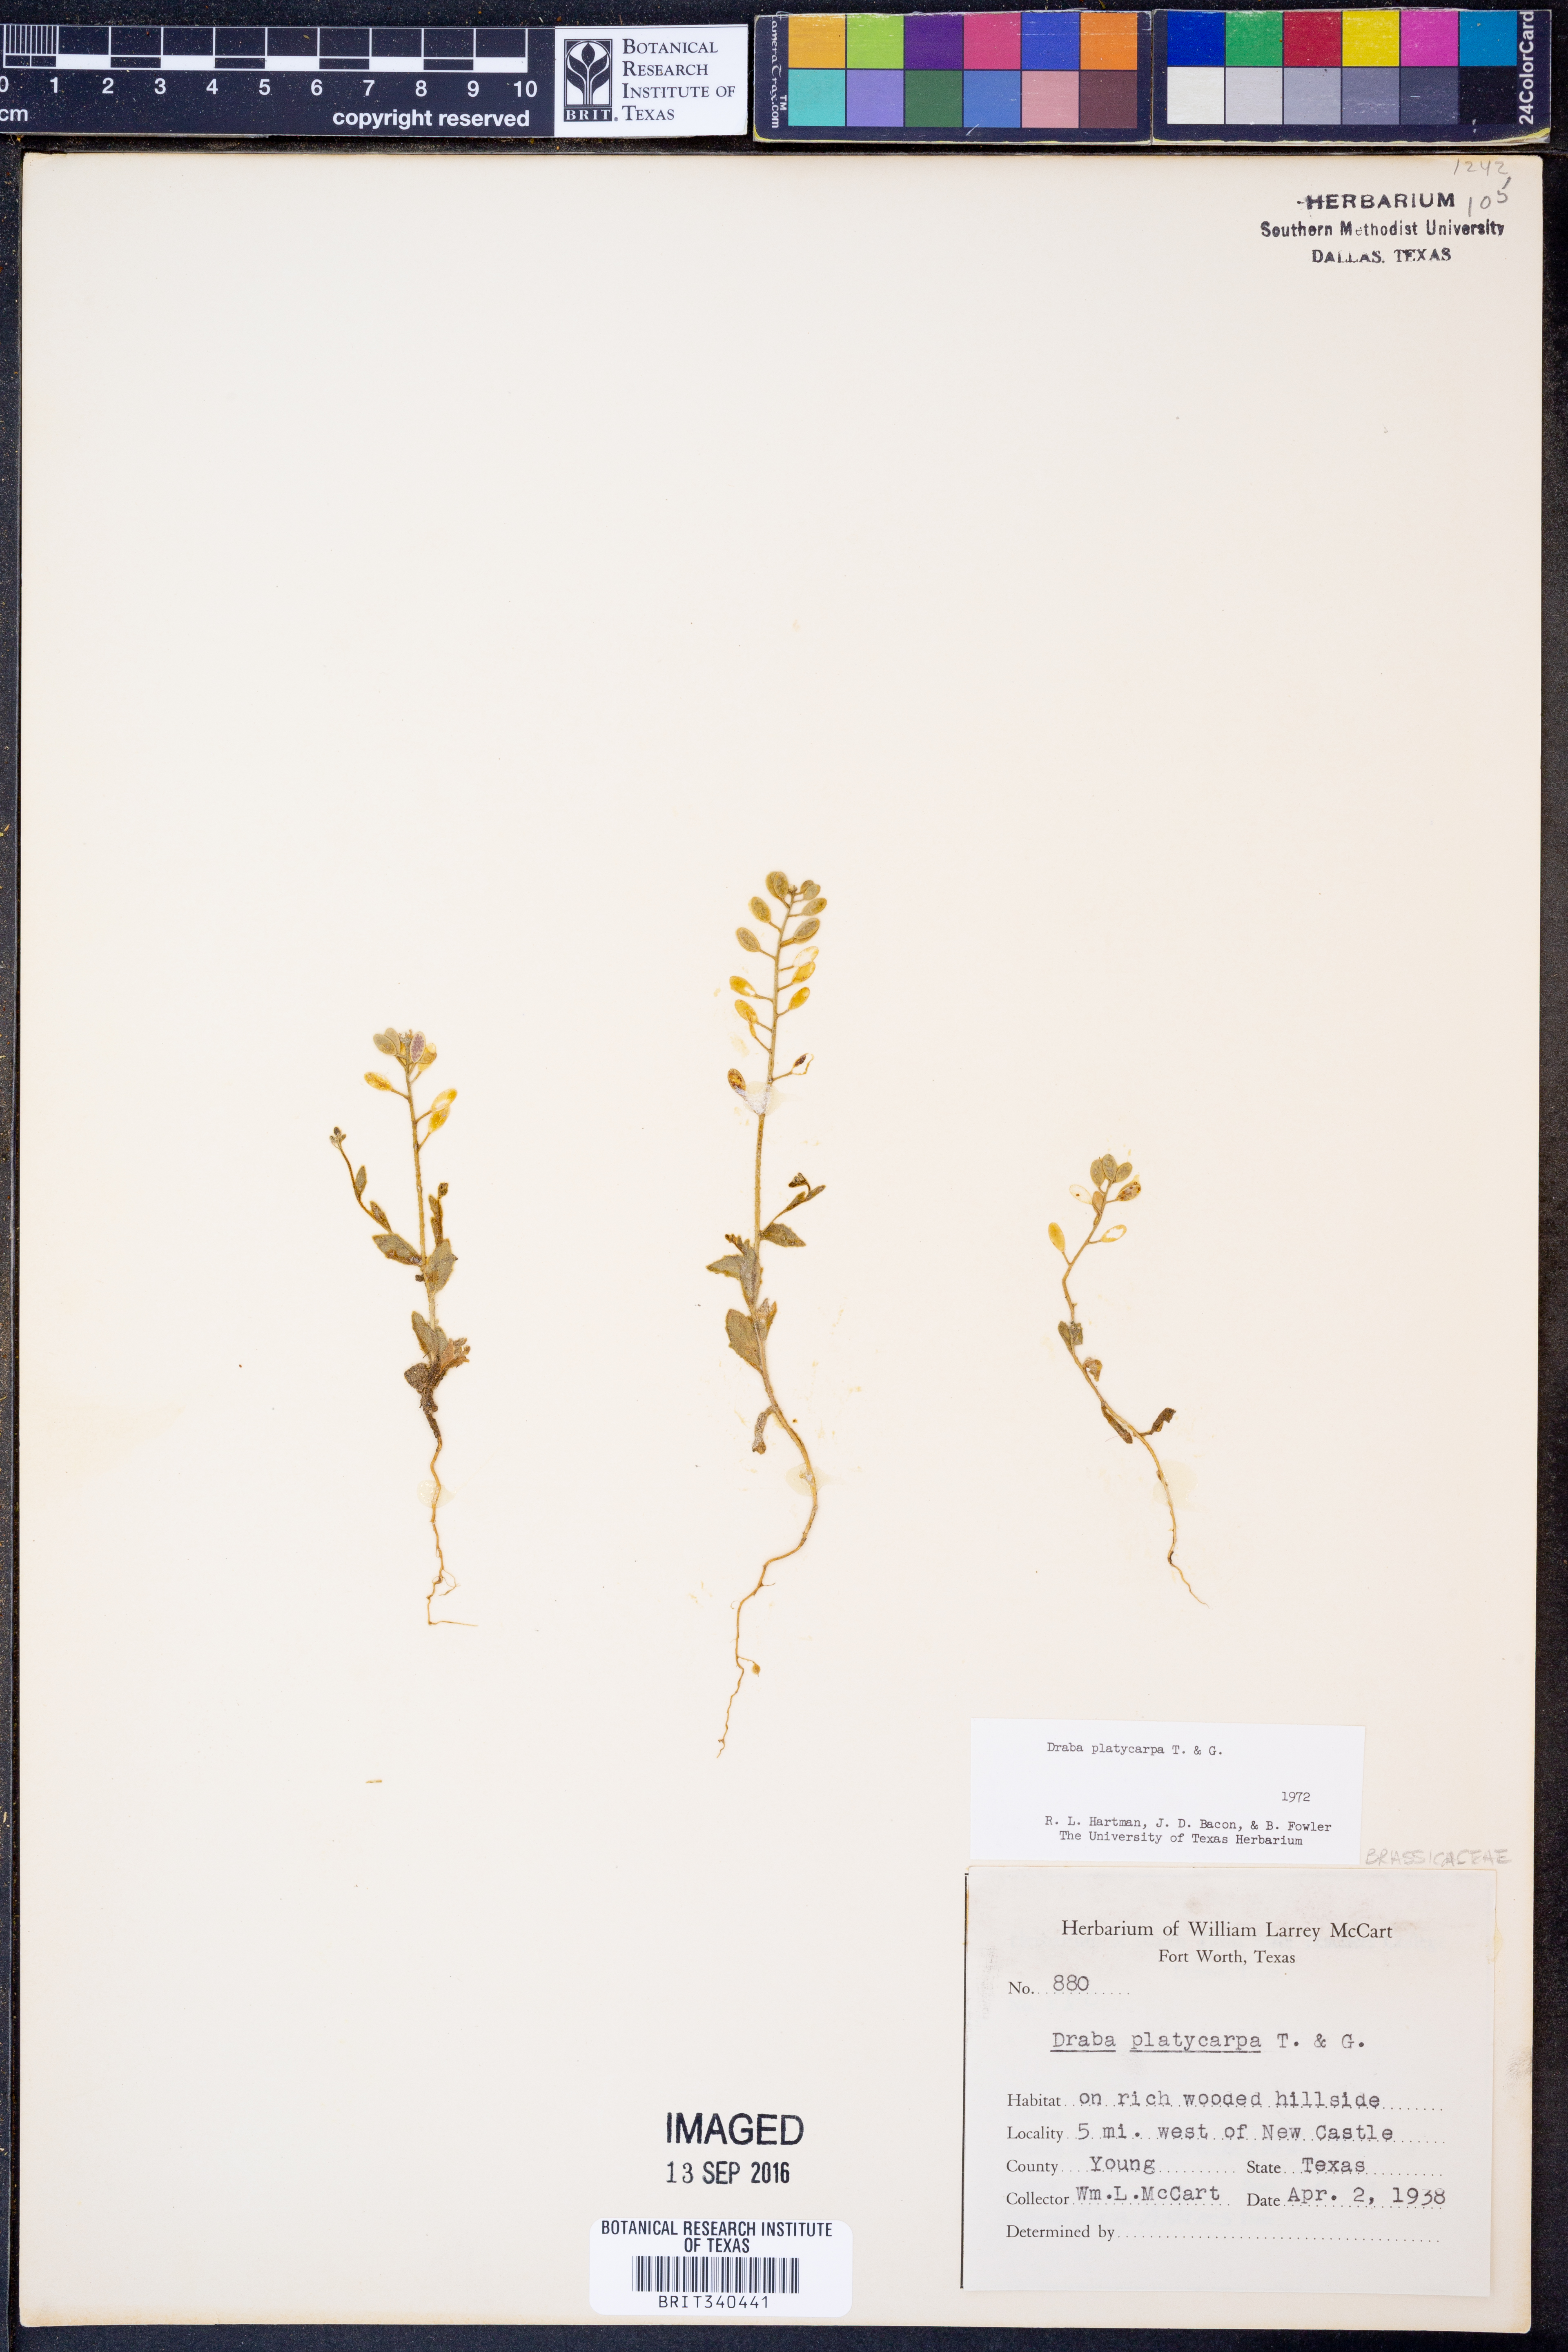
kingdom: Plantae
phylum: Tracheophyta
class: Magnoliopsida
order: Brassicales
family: Brassicaceae
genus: Tomostima
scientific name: Tomostima platycarpa
